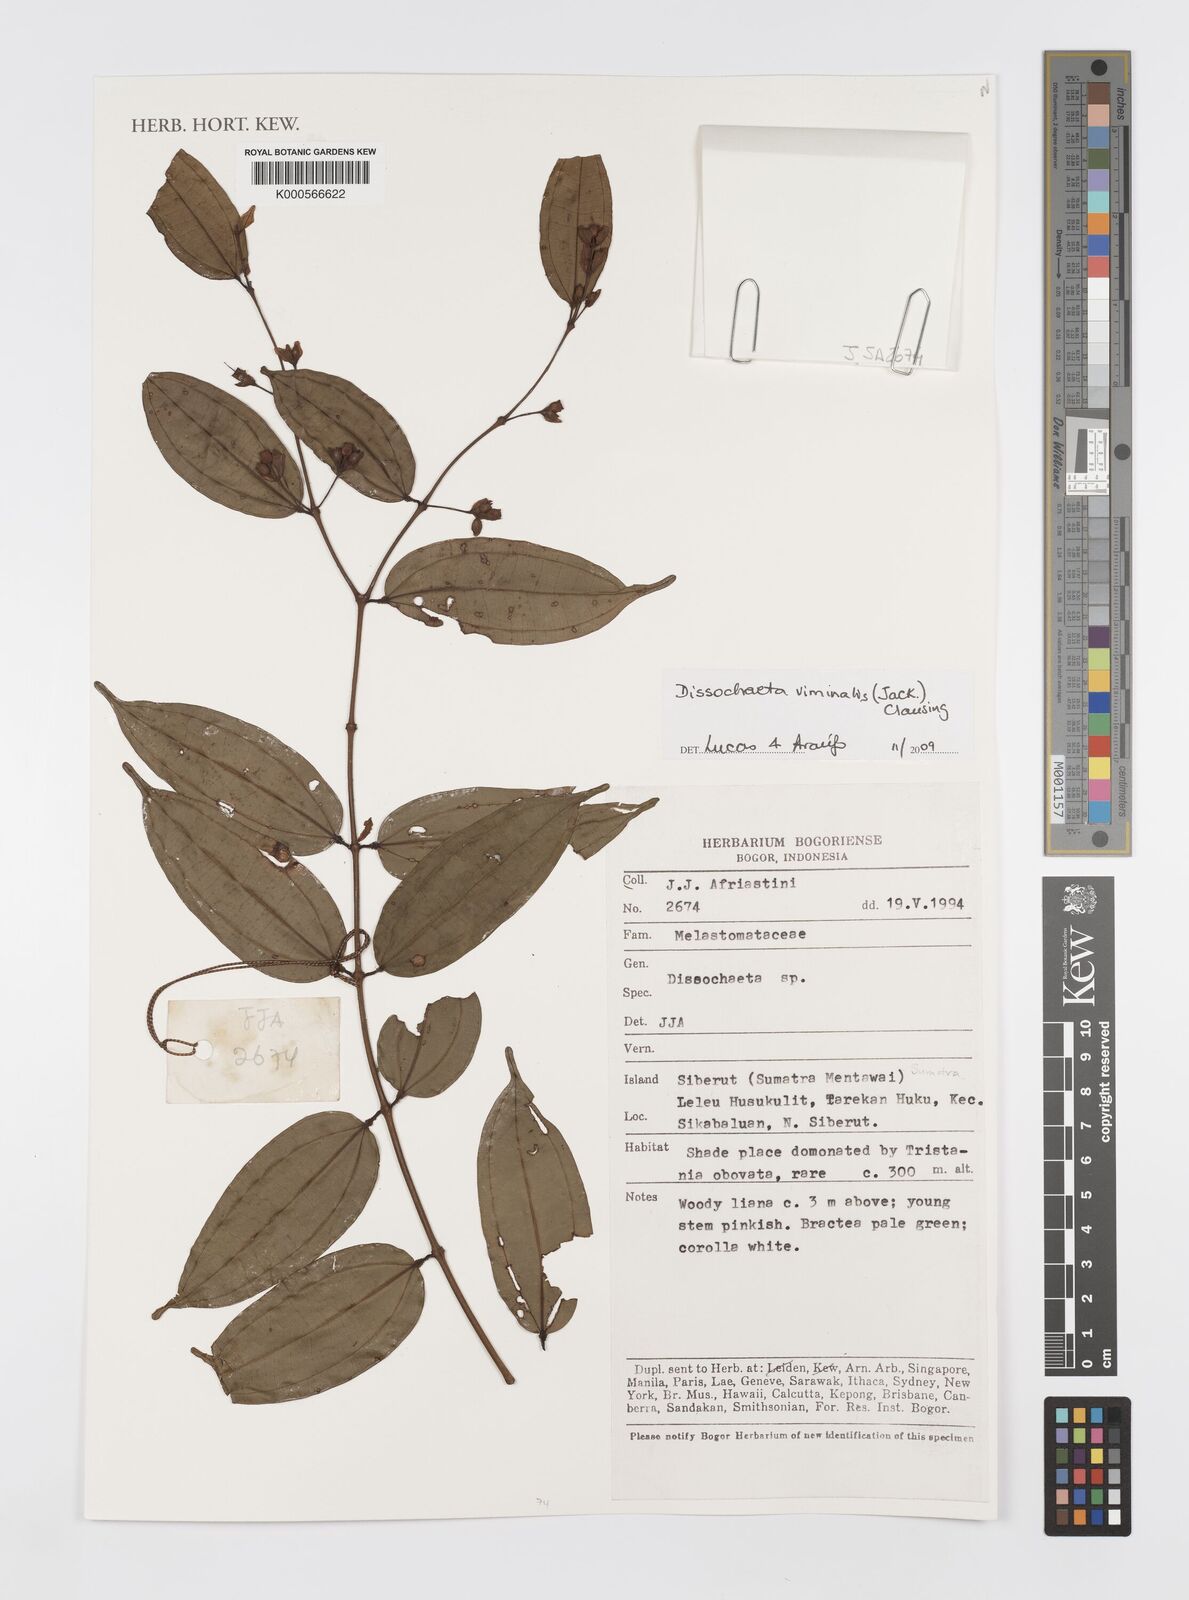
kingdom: Plantae
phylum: Tracheophyta
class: Magnoliopsida
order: Myrtales
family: Melastomataceae
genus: Diplectria
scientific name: Diplectria viminalis
